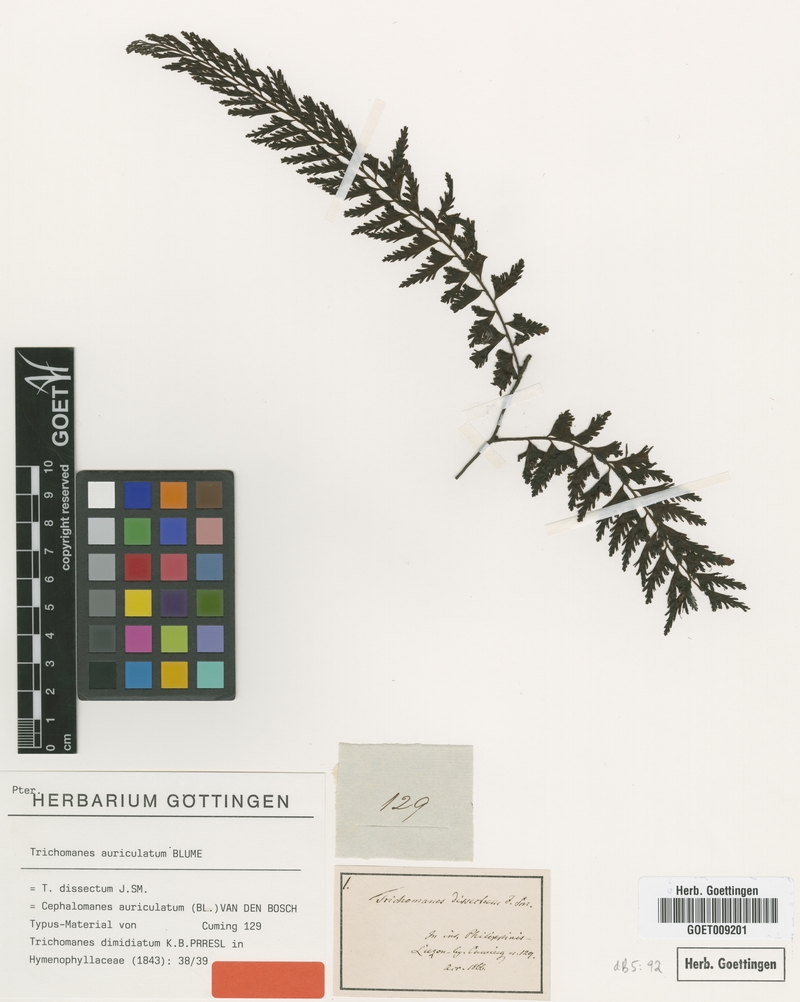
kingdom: Plantae
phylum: Tracheophyta
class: Polypodiopsida
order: Hymenophyllales
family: Hymenophyllaceae
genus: Vandenboschia
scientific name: Vandenboschia auriculata
